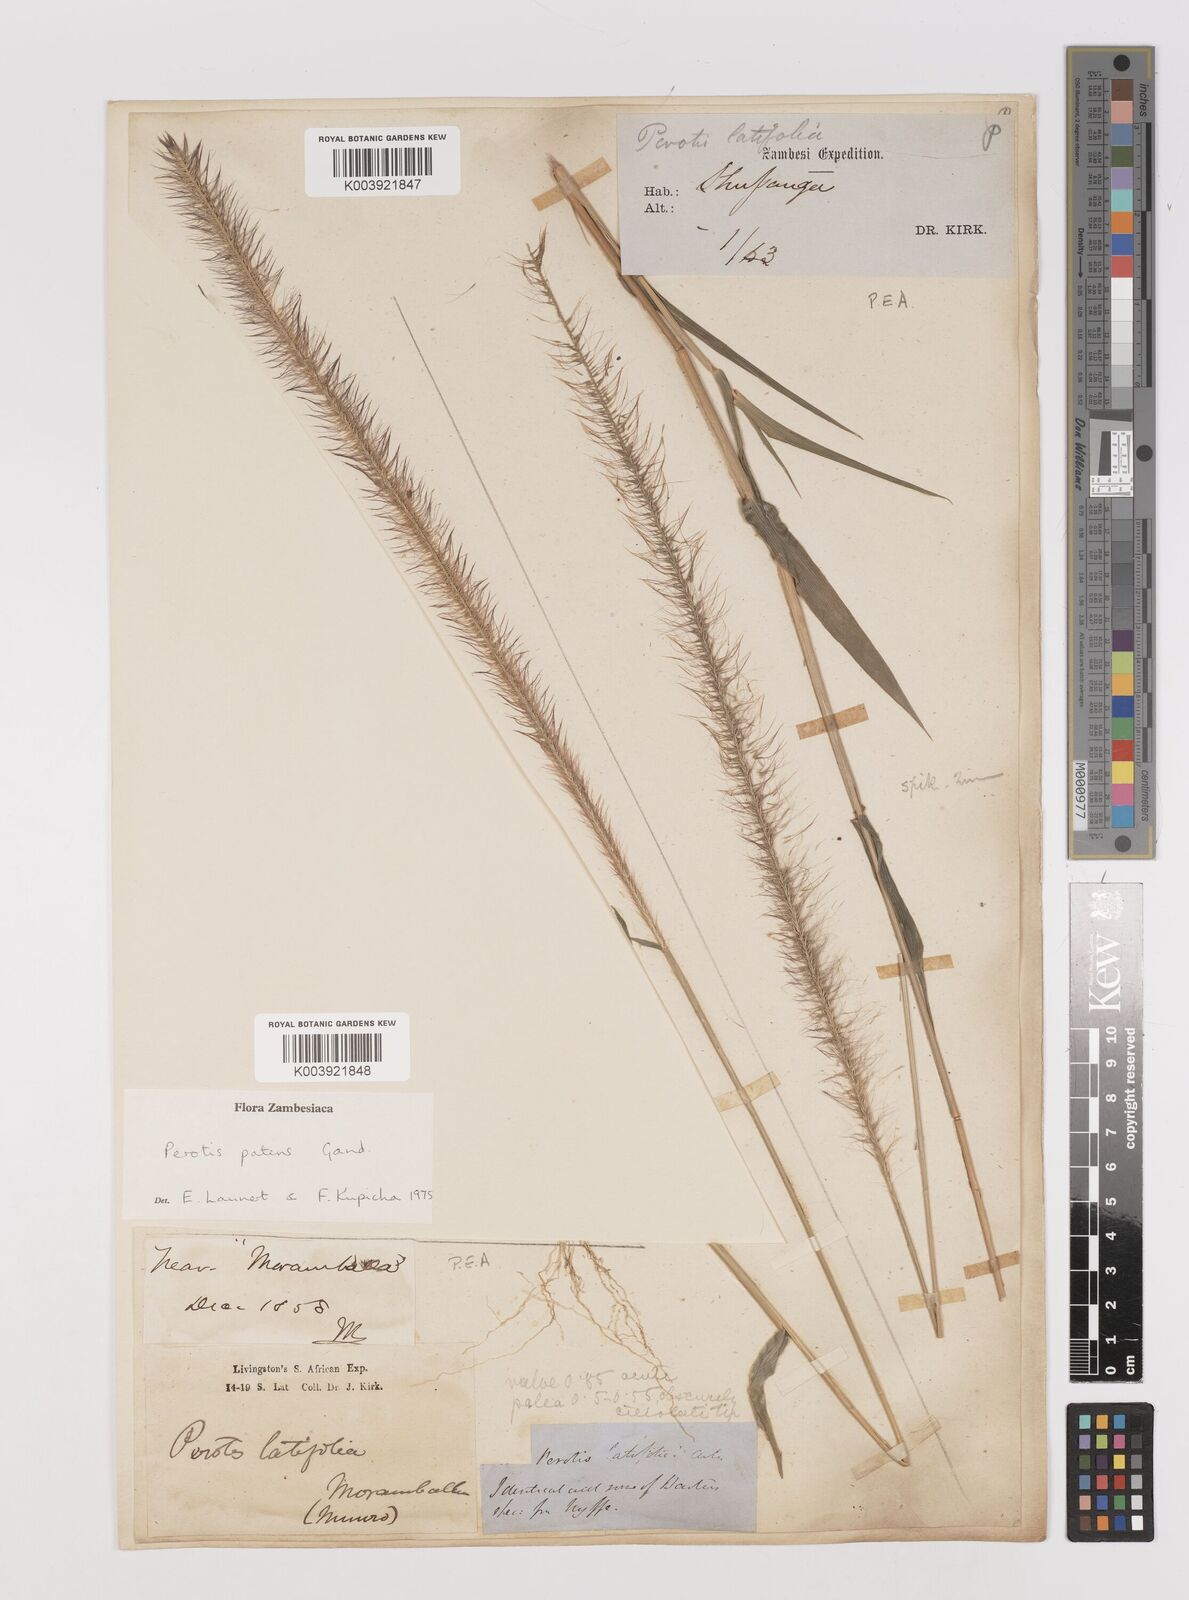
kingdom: Plantae
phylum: Tracheophyta
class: Liliopsida
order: Poales
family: Poaceae
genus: Perotis
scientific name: Perotis patens
